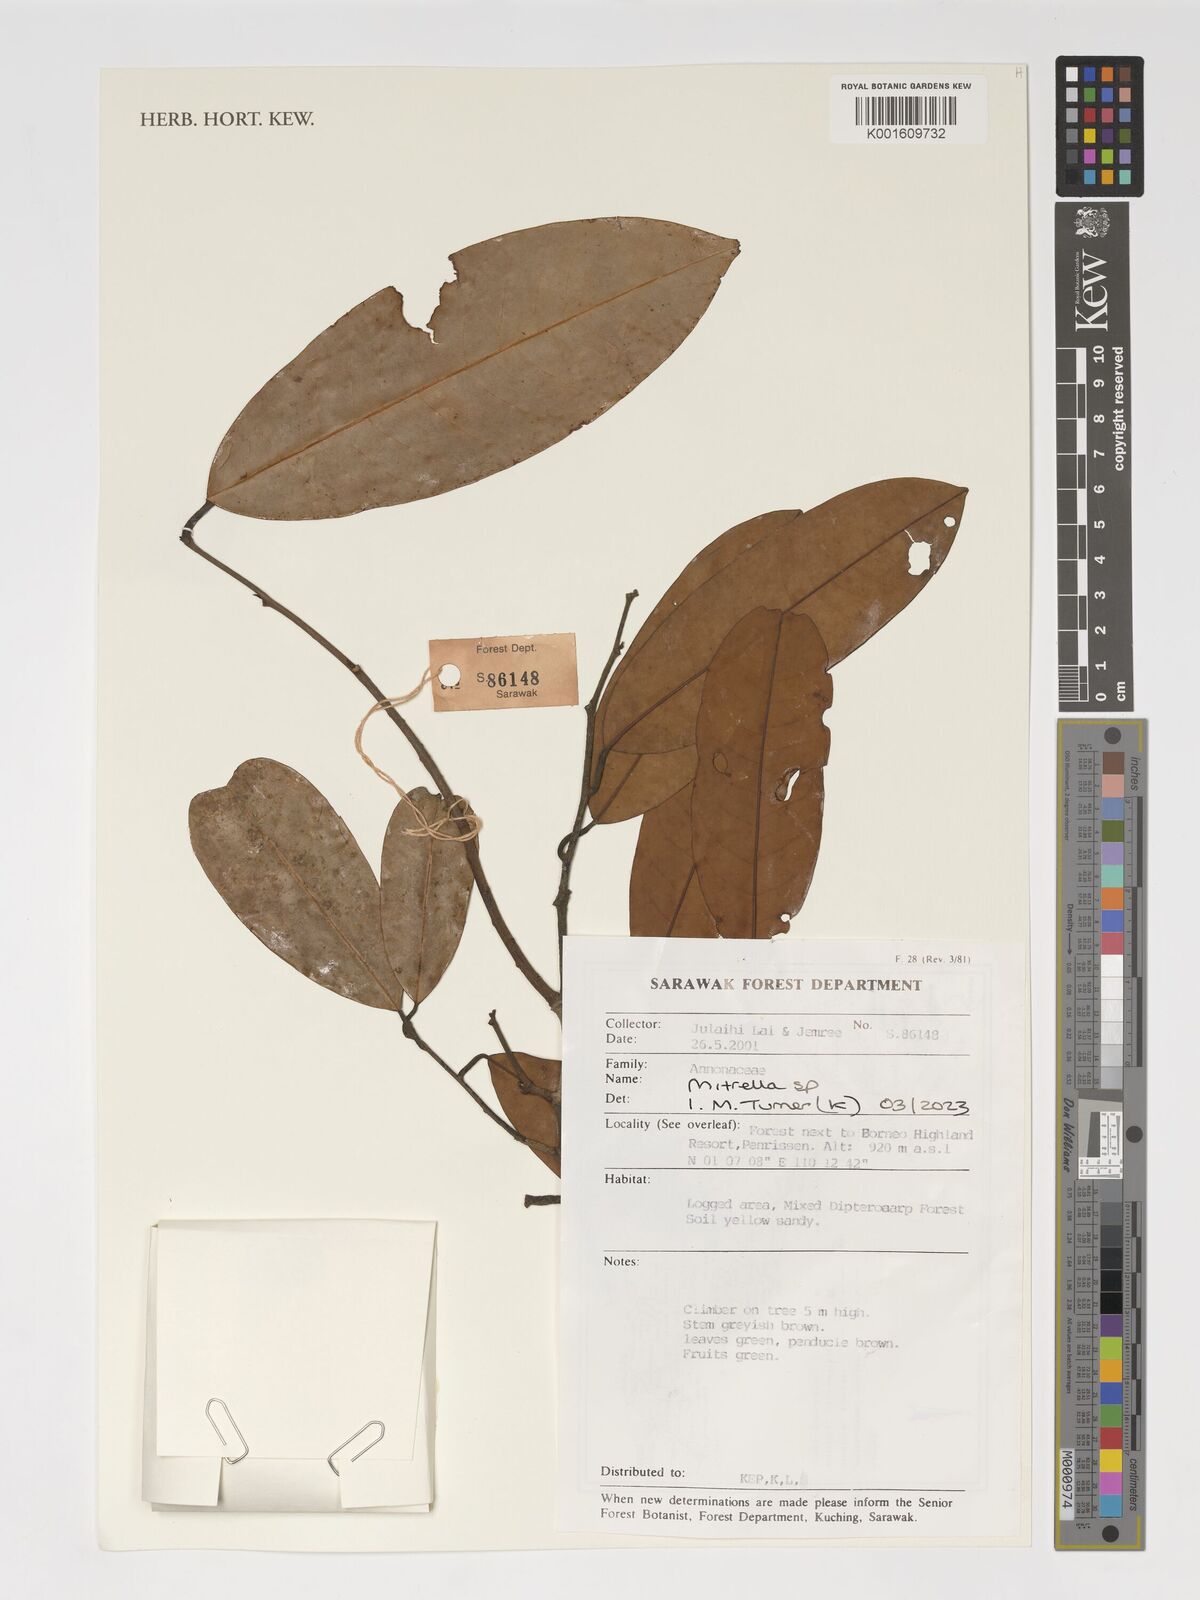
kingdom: Plantae
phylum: Tracheophyta
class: Magnoliopsida
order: Magnoliales
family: Annonaceae
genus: Mitrella
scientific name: Mitrella
